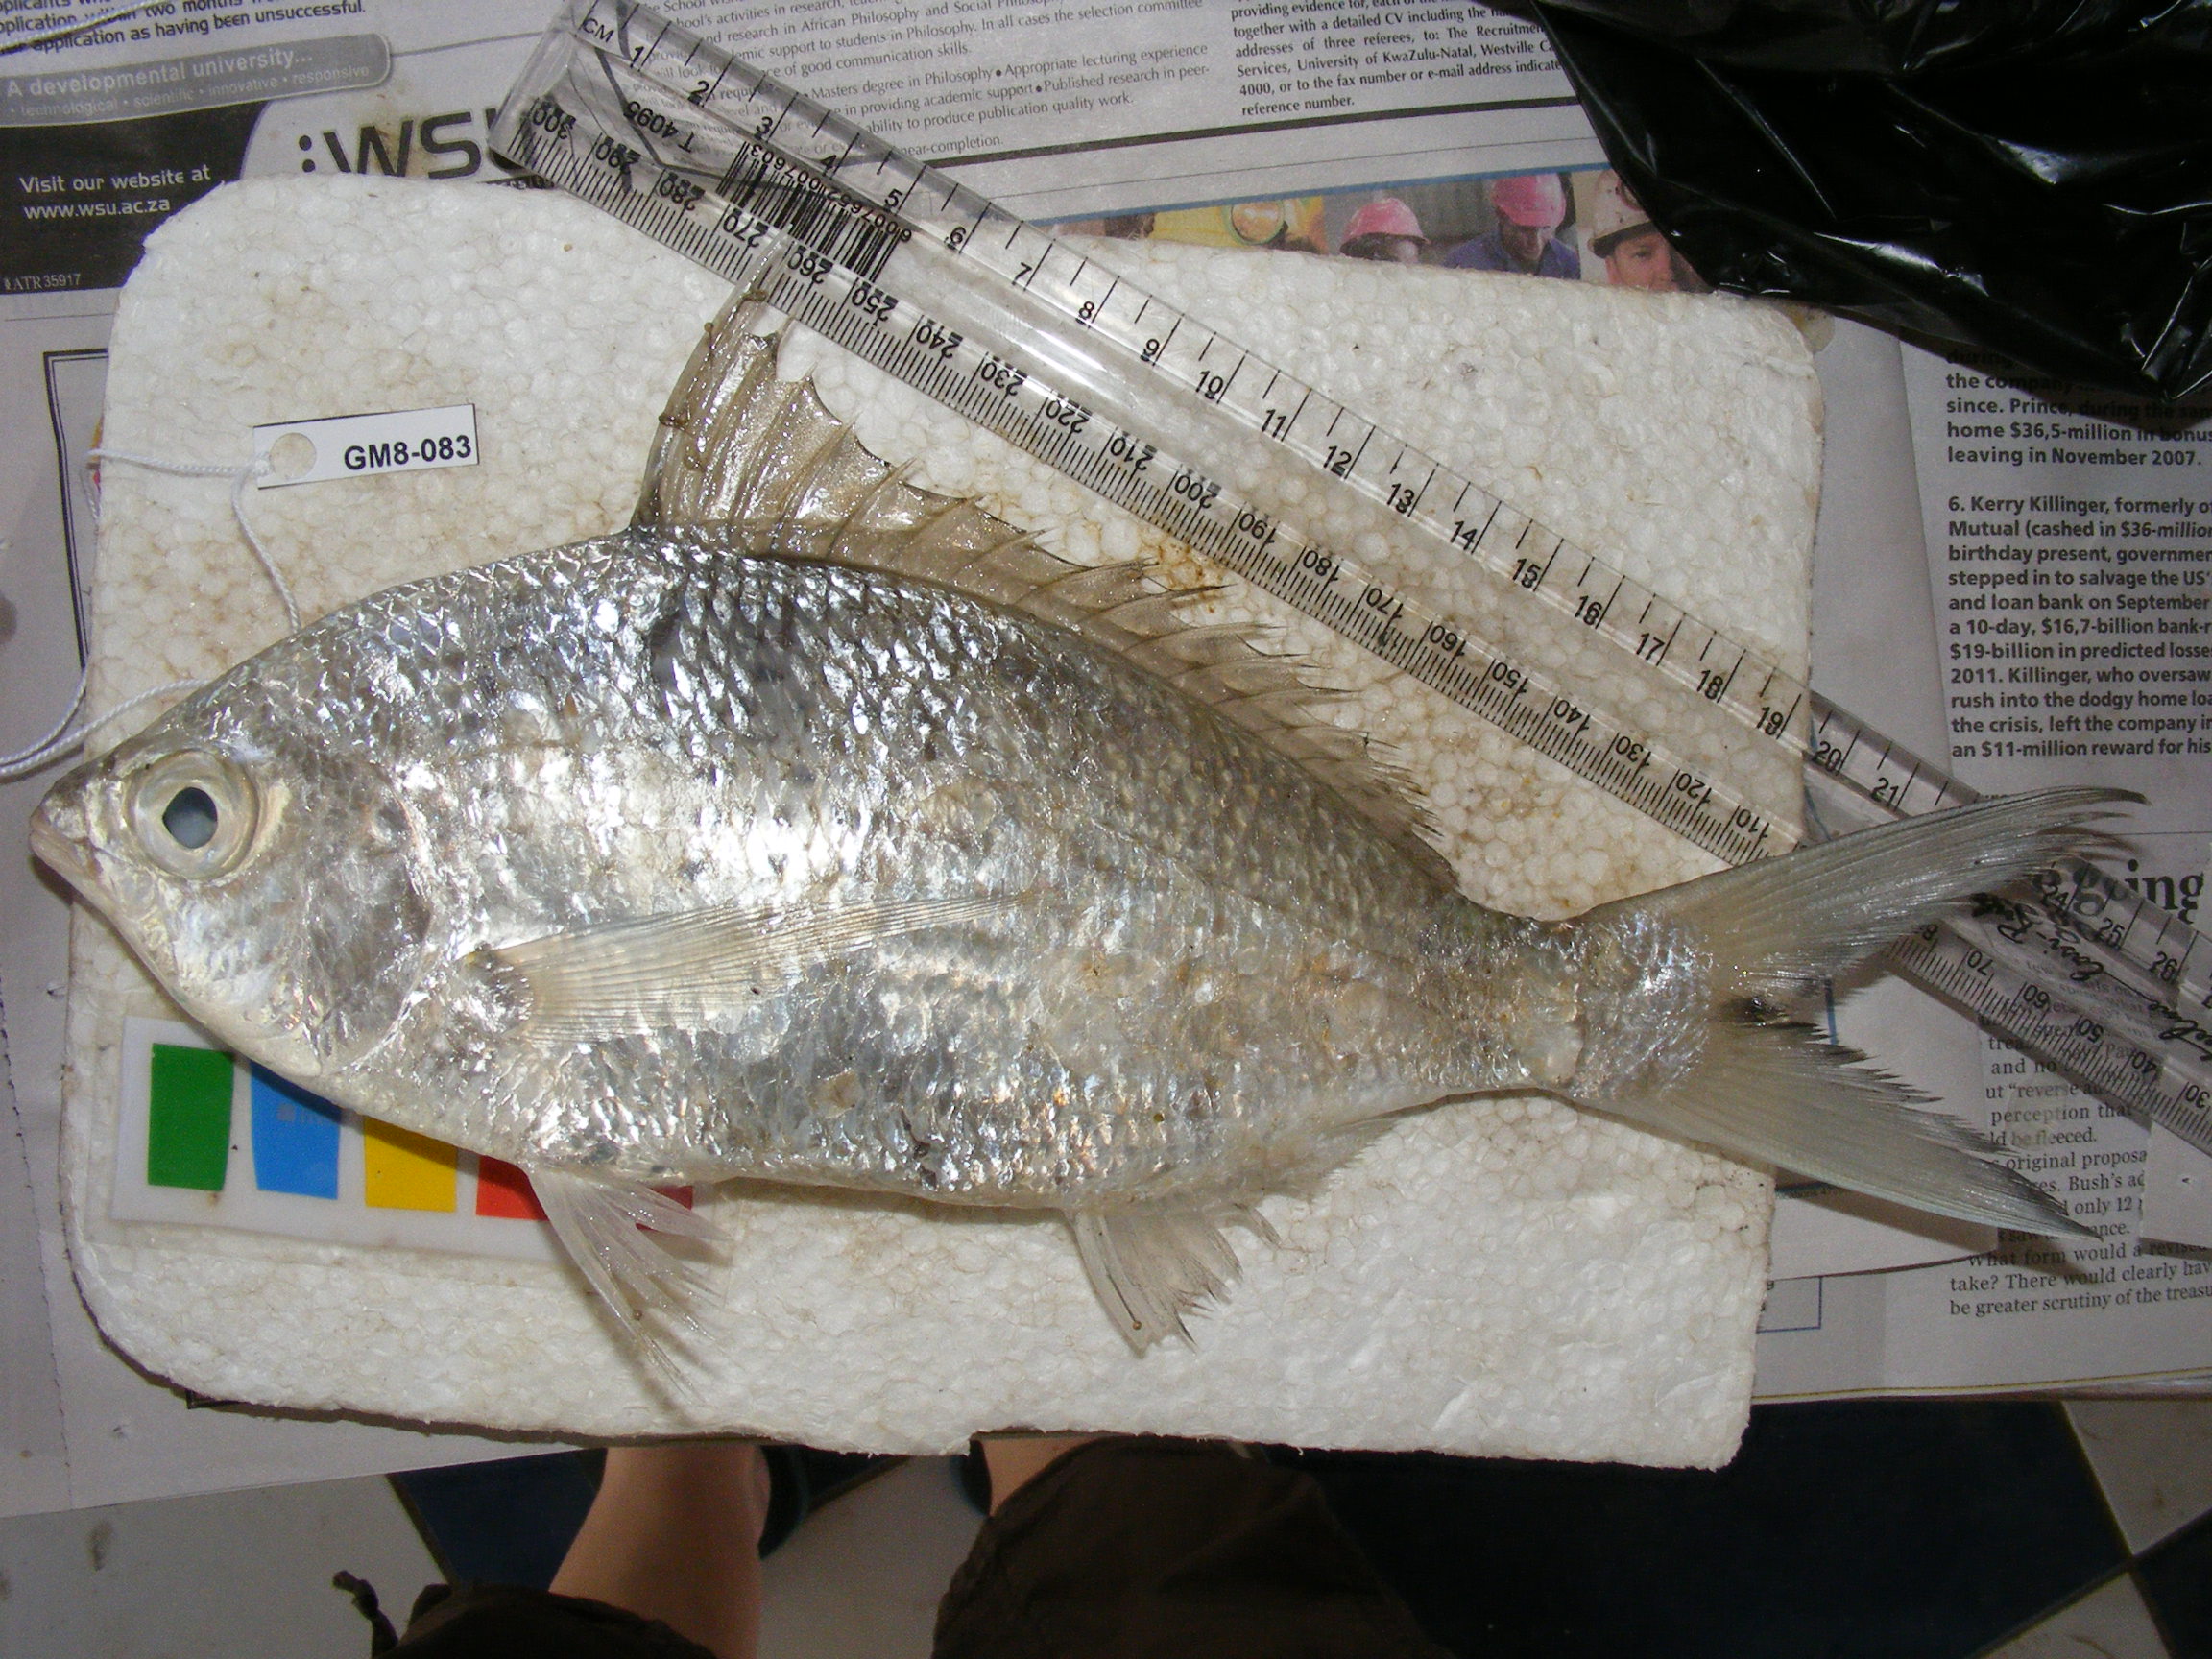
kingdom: Animalia
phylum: Chordata
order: Perciformes
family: Gerreidae
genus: Gerres
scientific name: Gerres methueni
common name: Longtail silverbiddy
